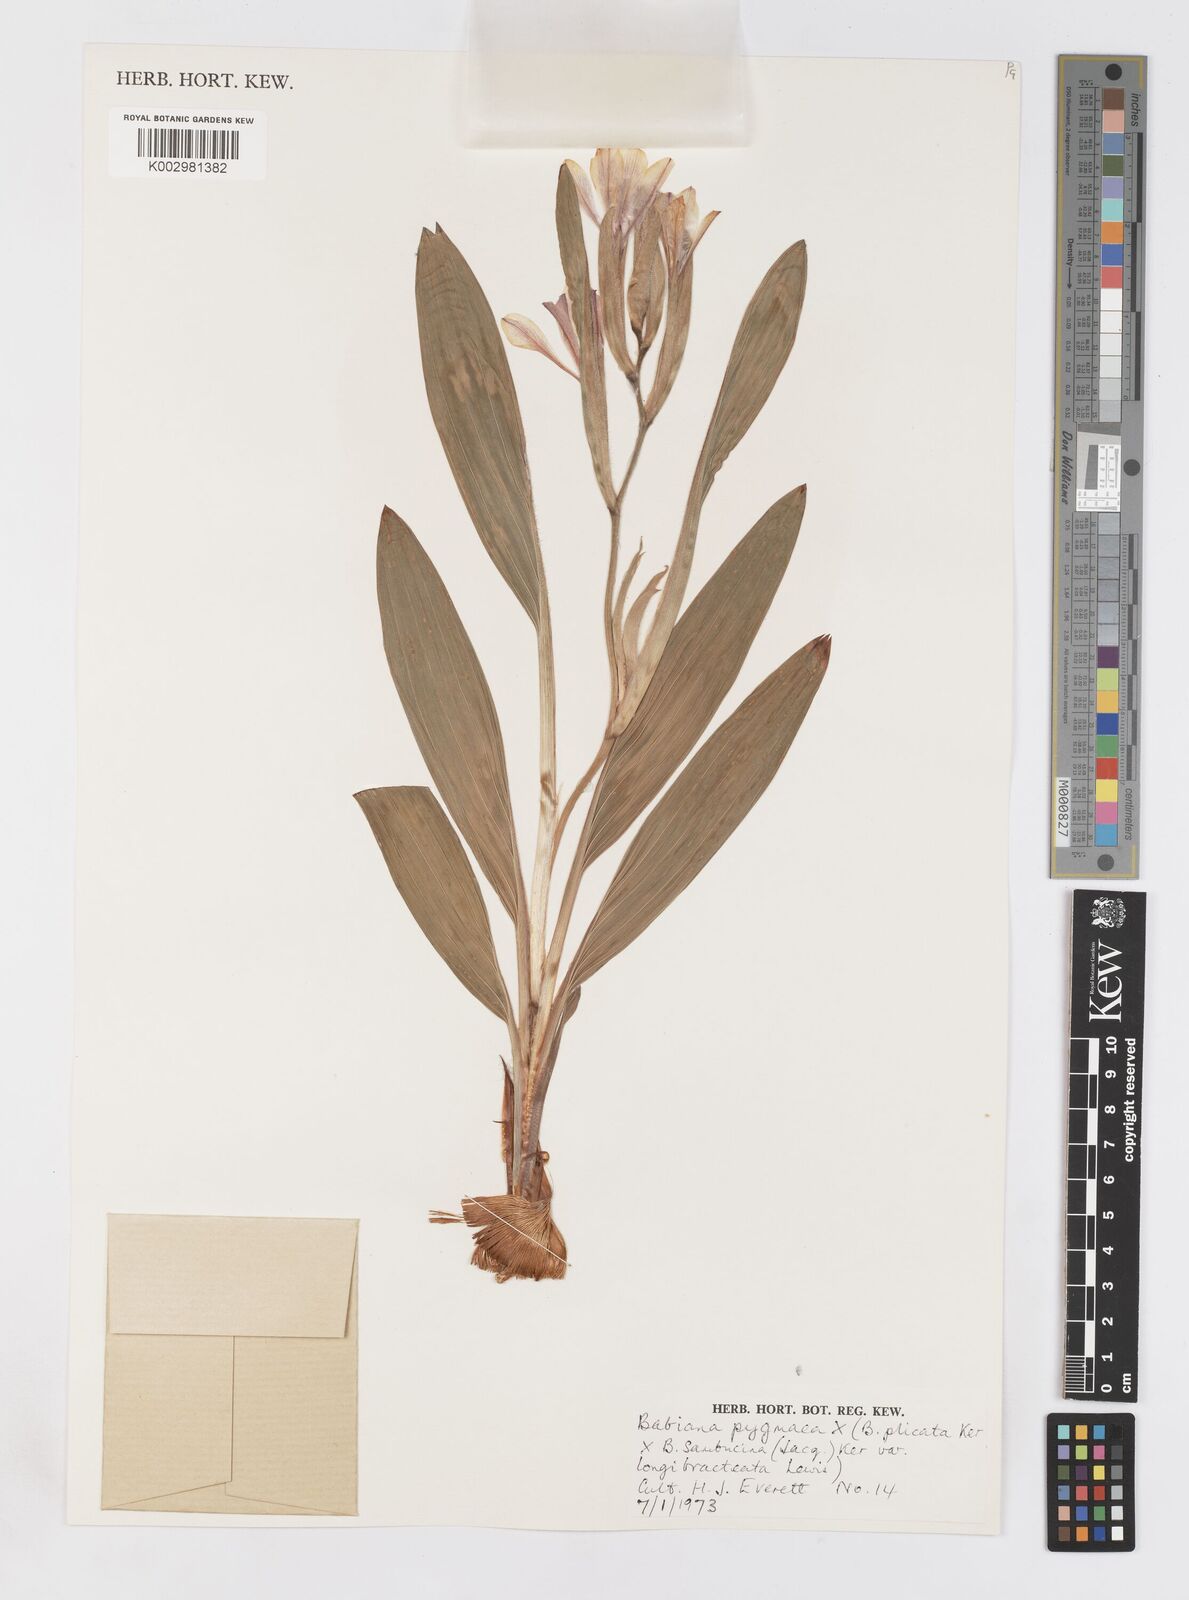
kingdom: Plantae
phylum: Tracheophyta
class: Liliopsida
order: Asparagales
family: Iridaceae
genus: Babiana
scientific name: Babiana pygmaea
